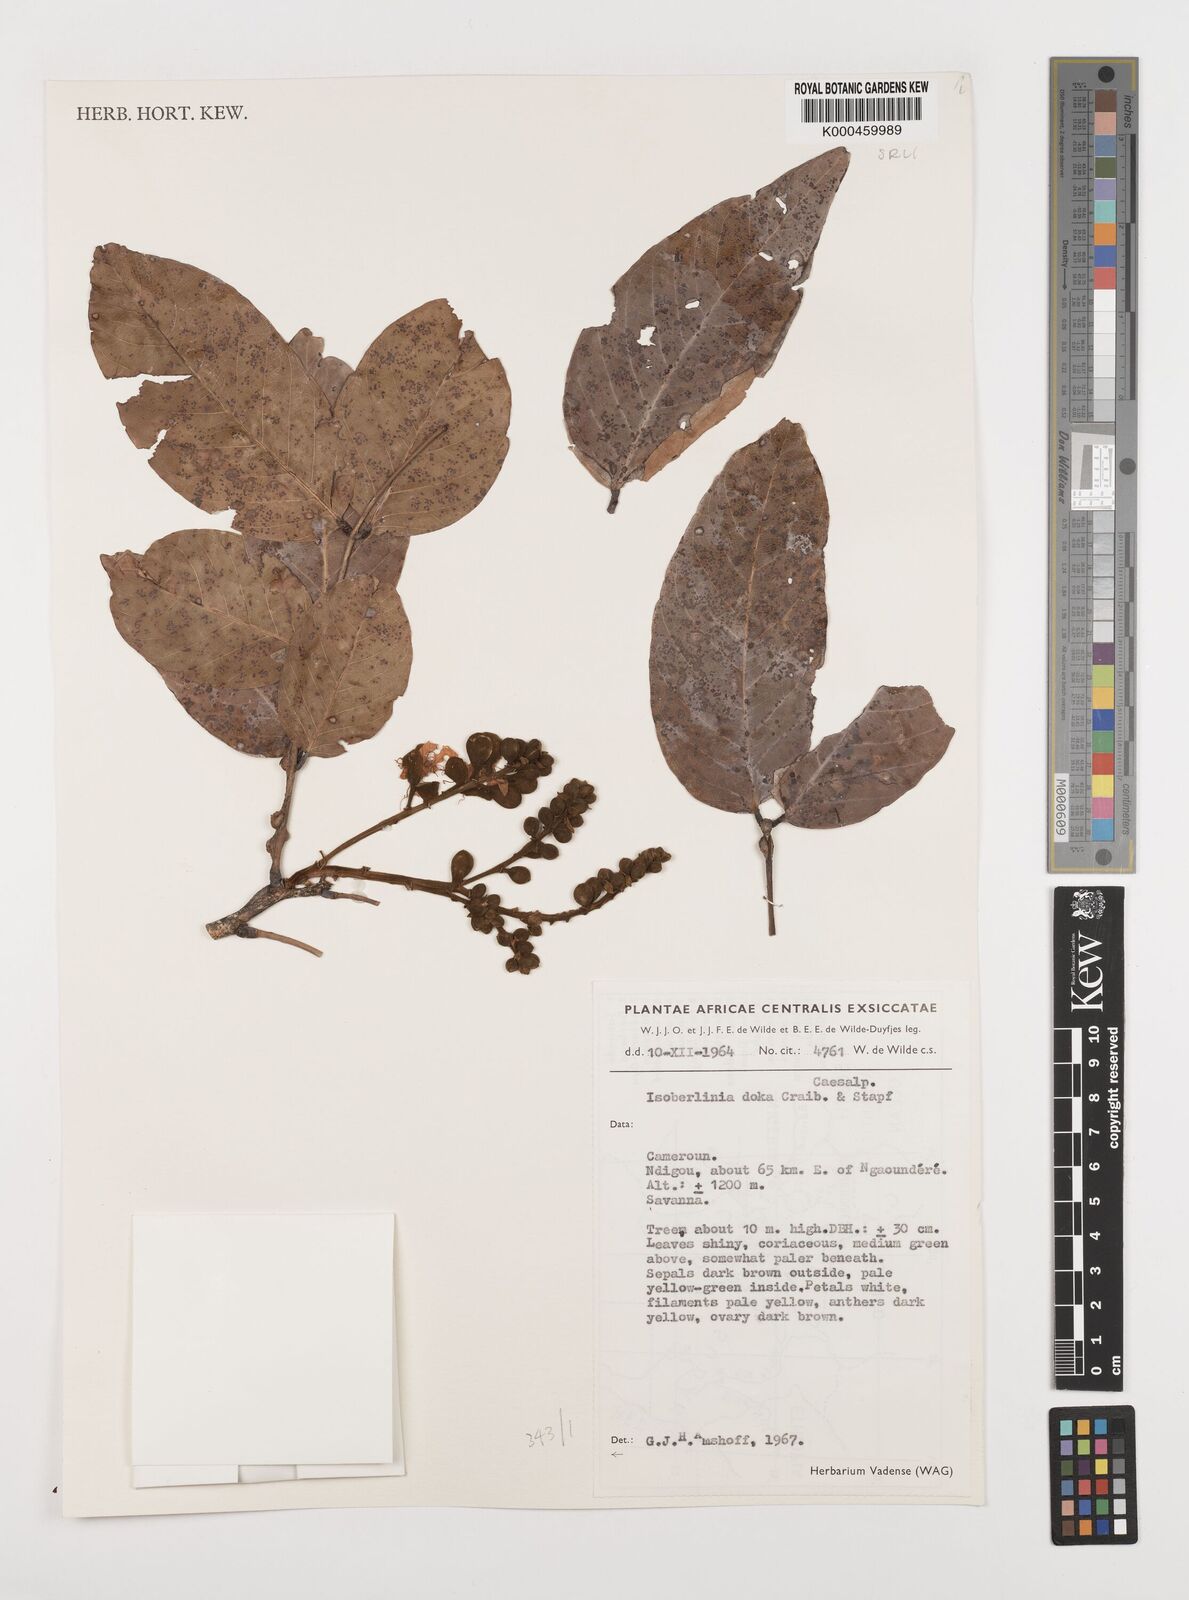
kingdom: Plantae
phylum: Tracheophyta
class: Magnoliopsida
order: Fabales
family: Fabaceae
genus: Isoberlinia
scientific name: Isoberlinia doka
